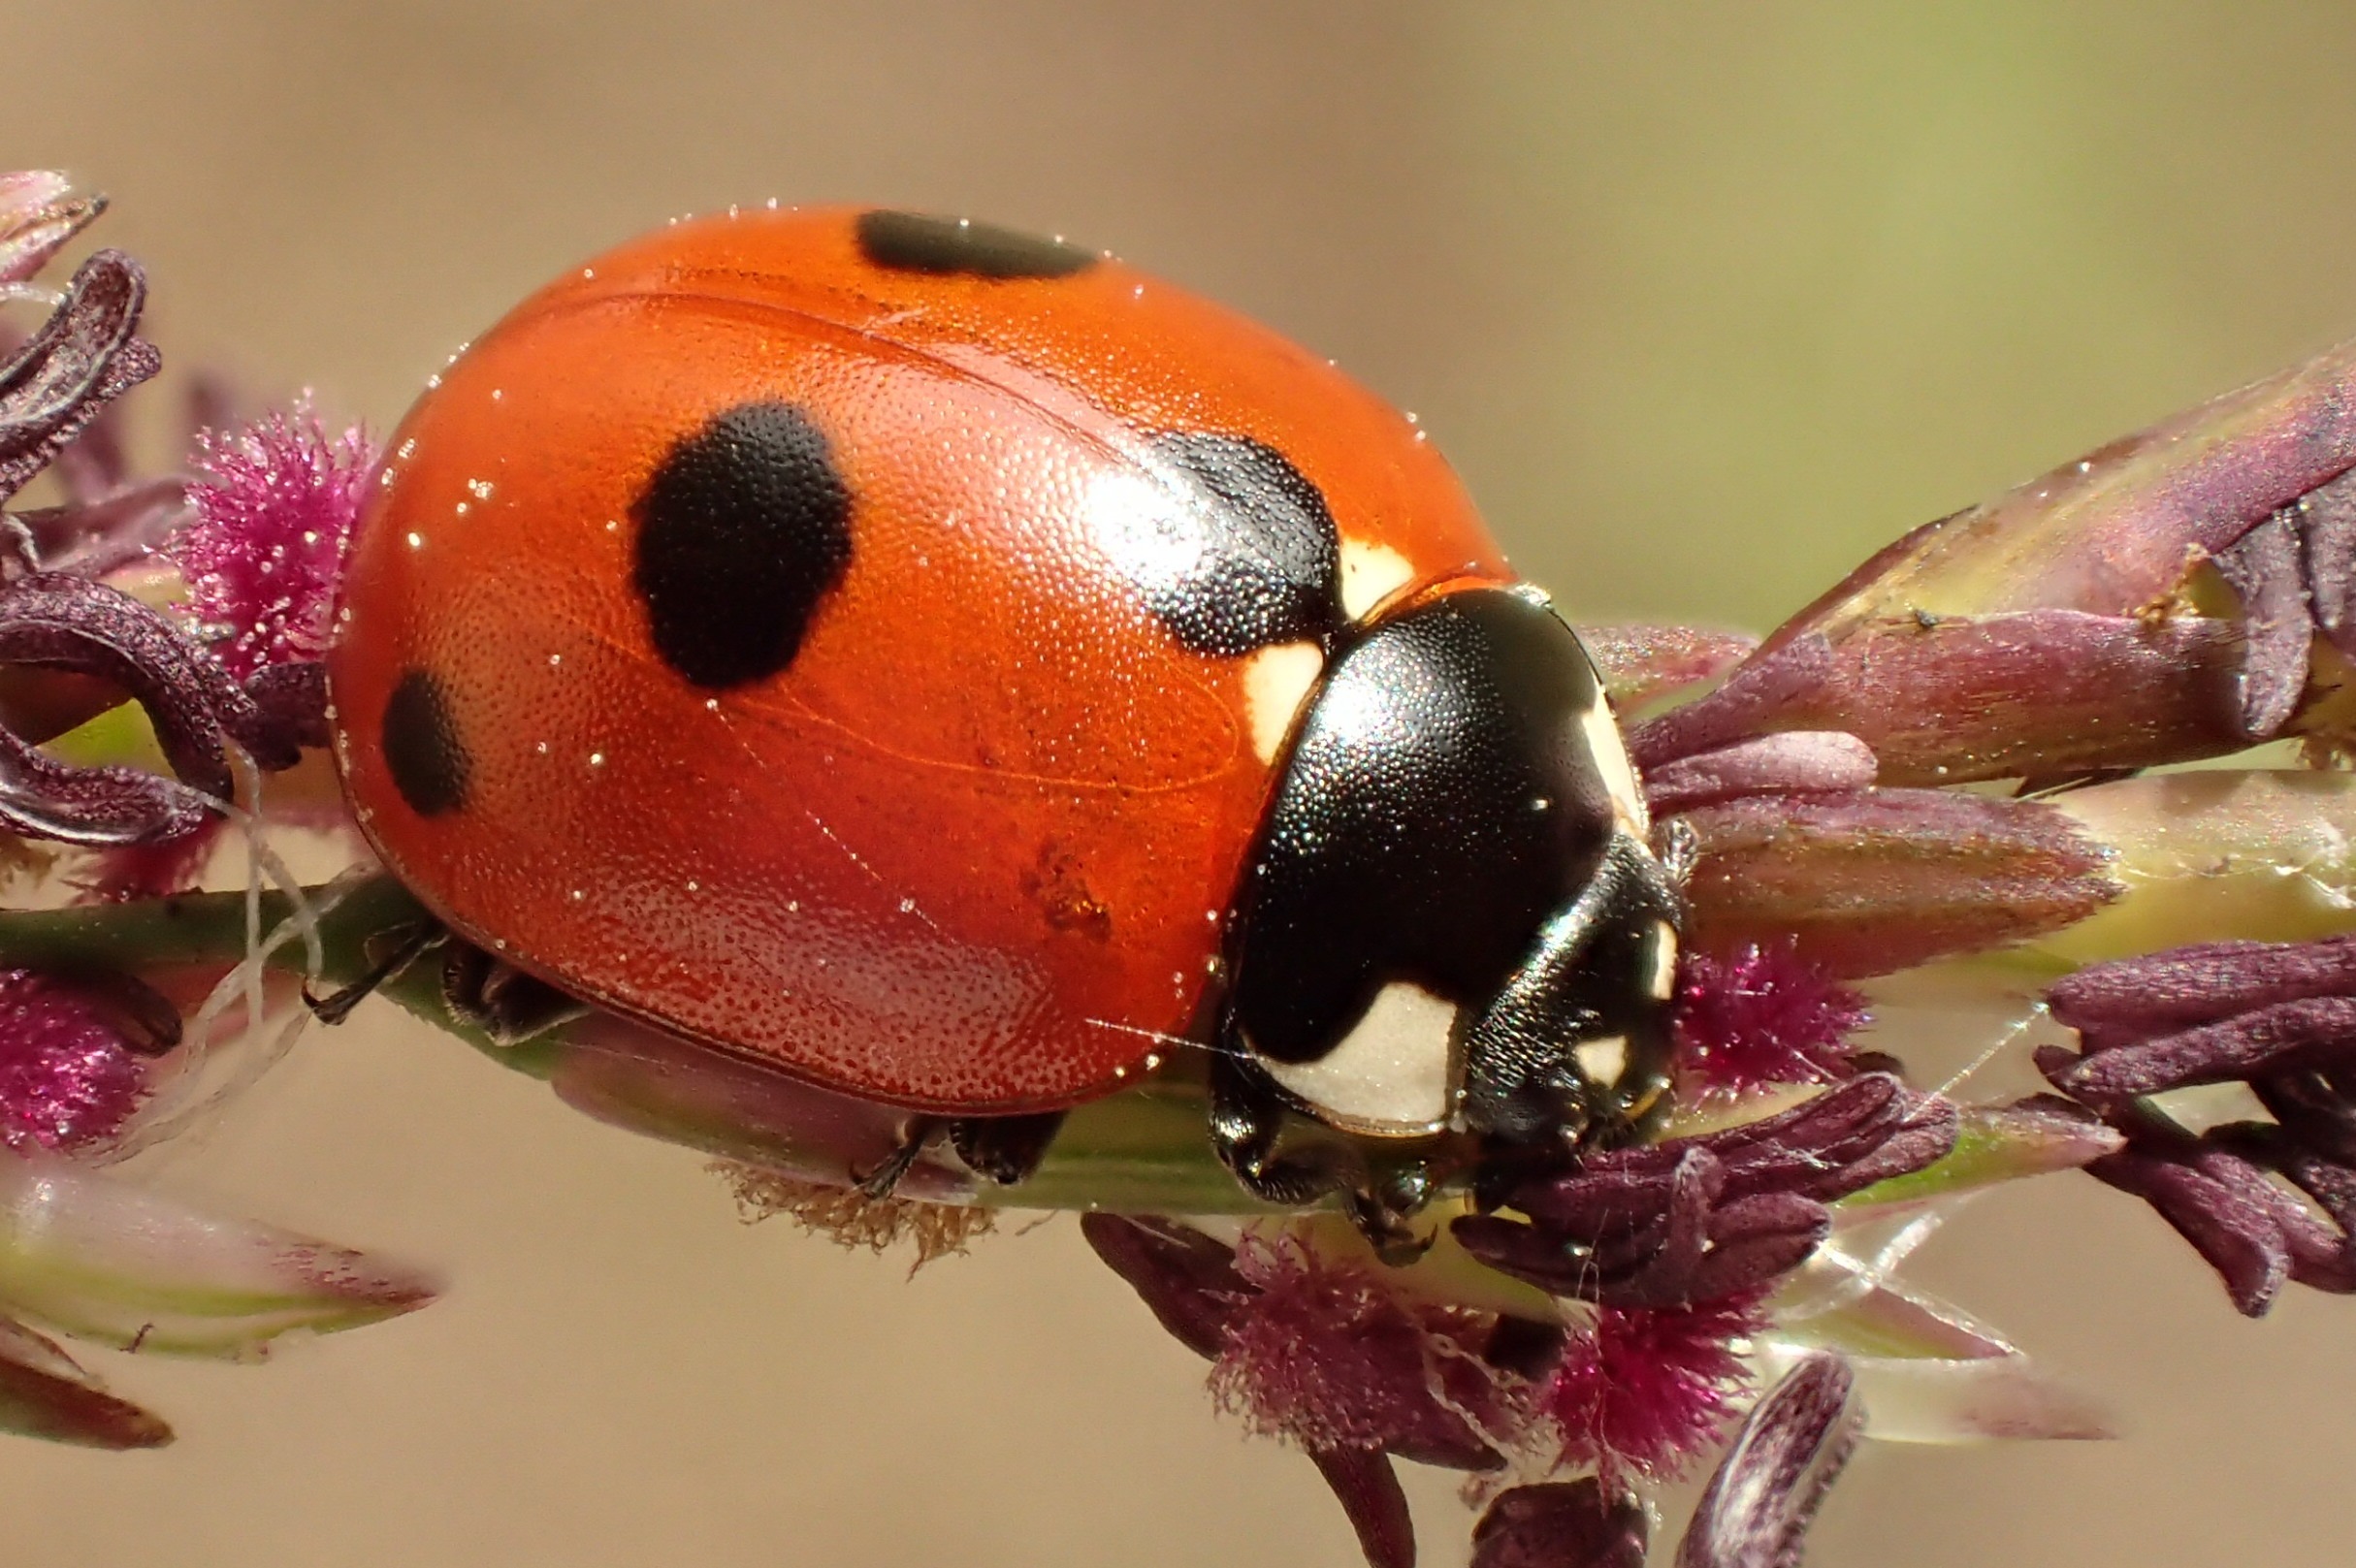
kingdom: Animalia
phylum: Arthropoda
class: Insecta
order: Coleoptera
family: Coccinellidae
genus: Coccinella
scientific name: Coccinella quinquepunctata
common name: Femplettet mariehøne
